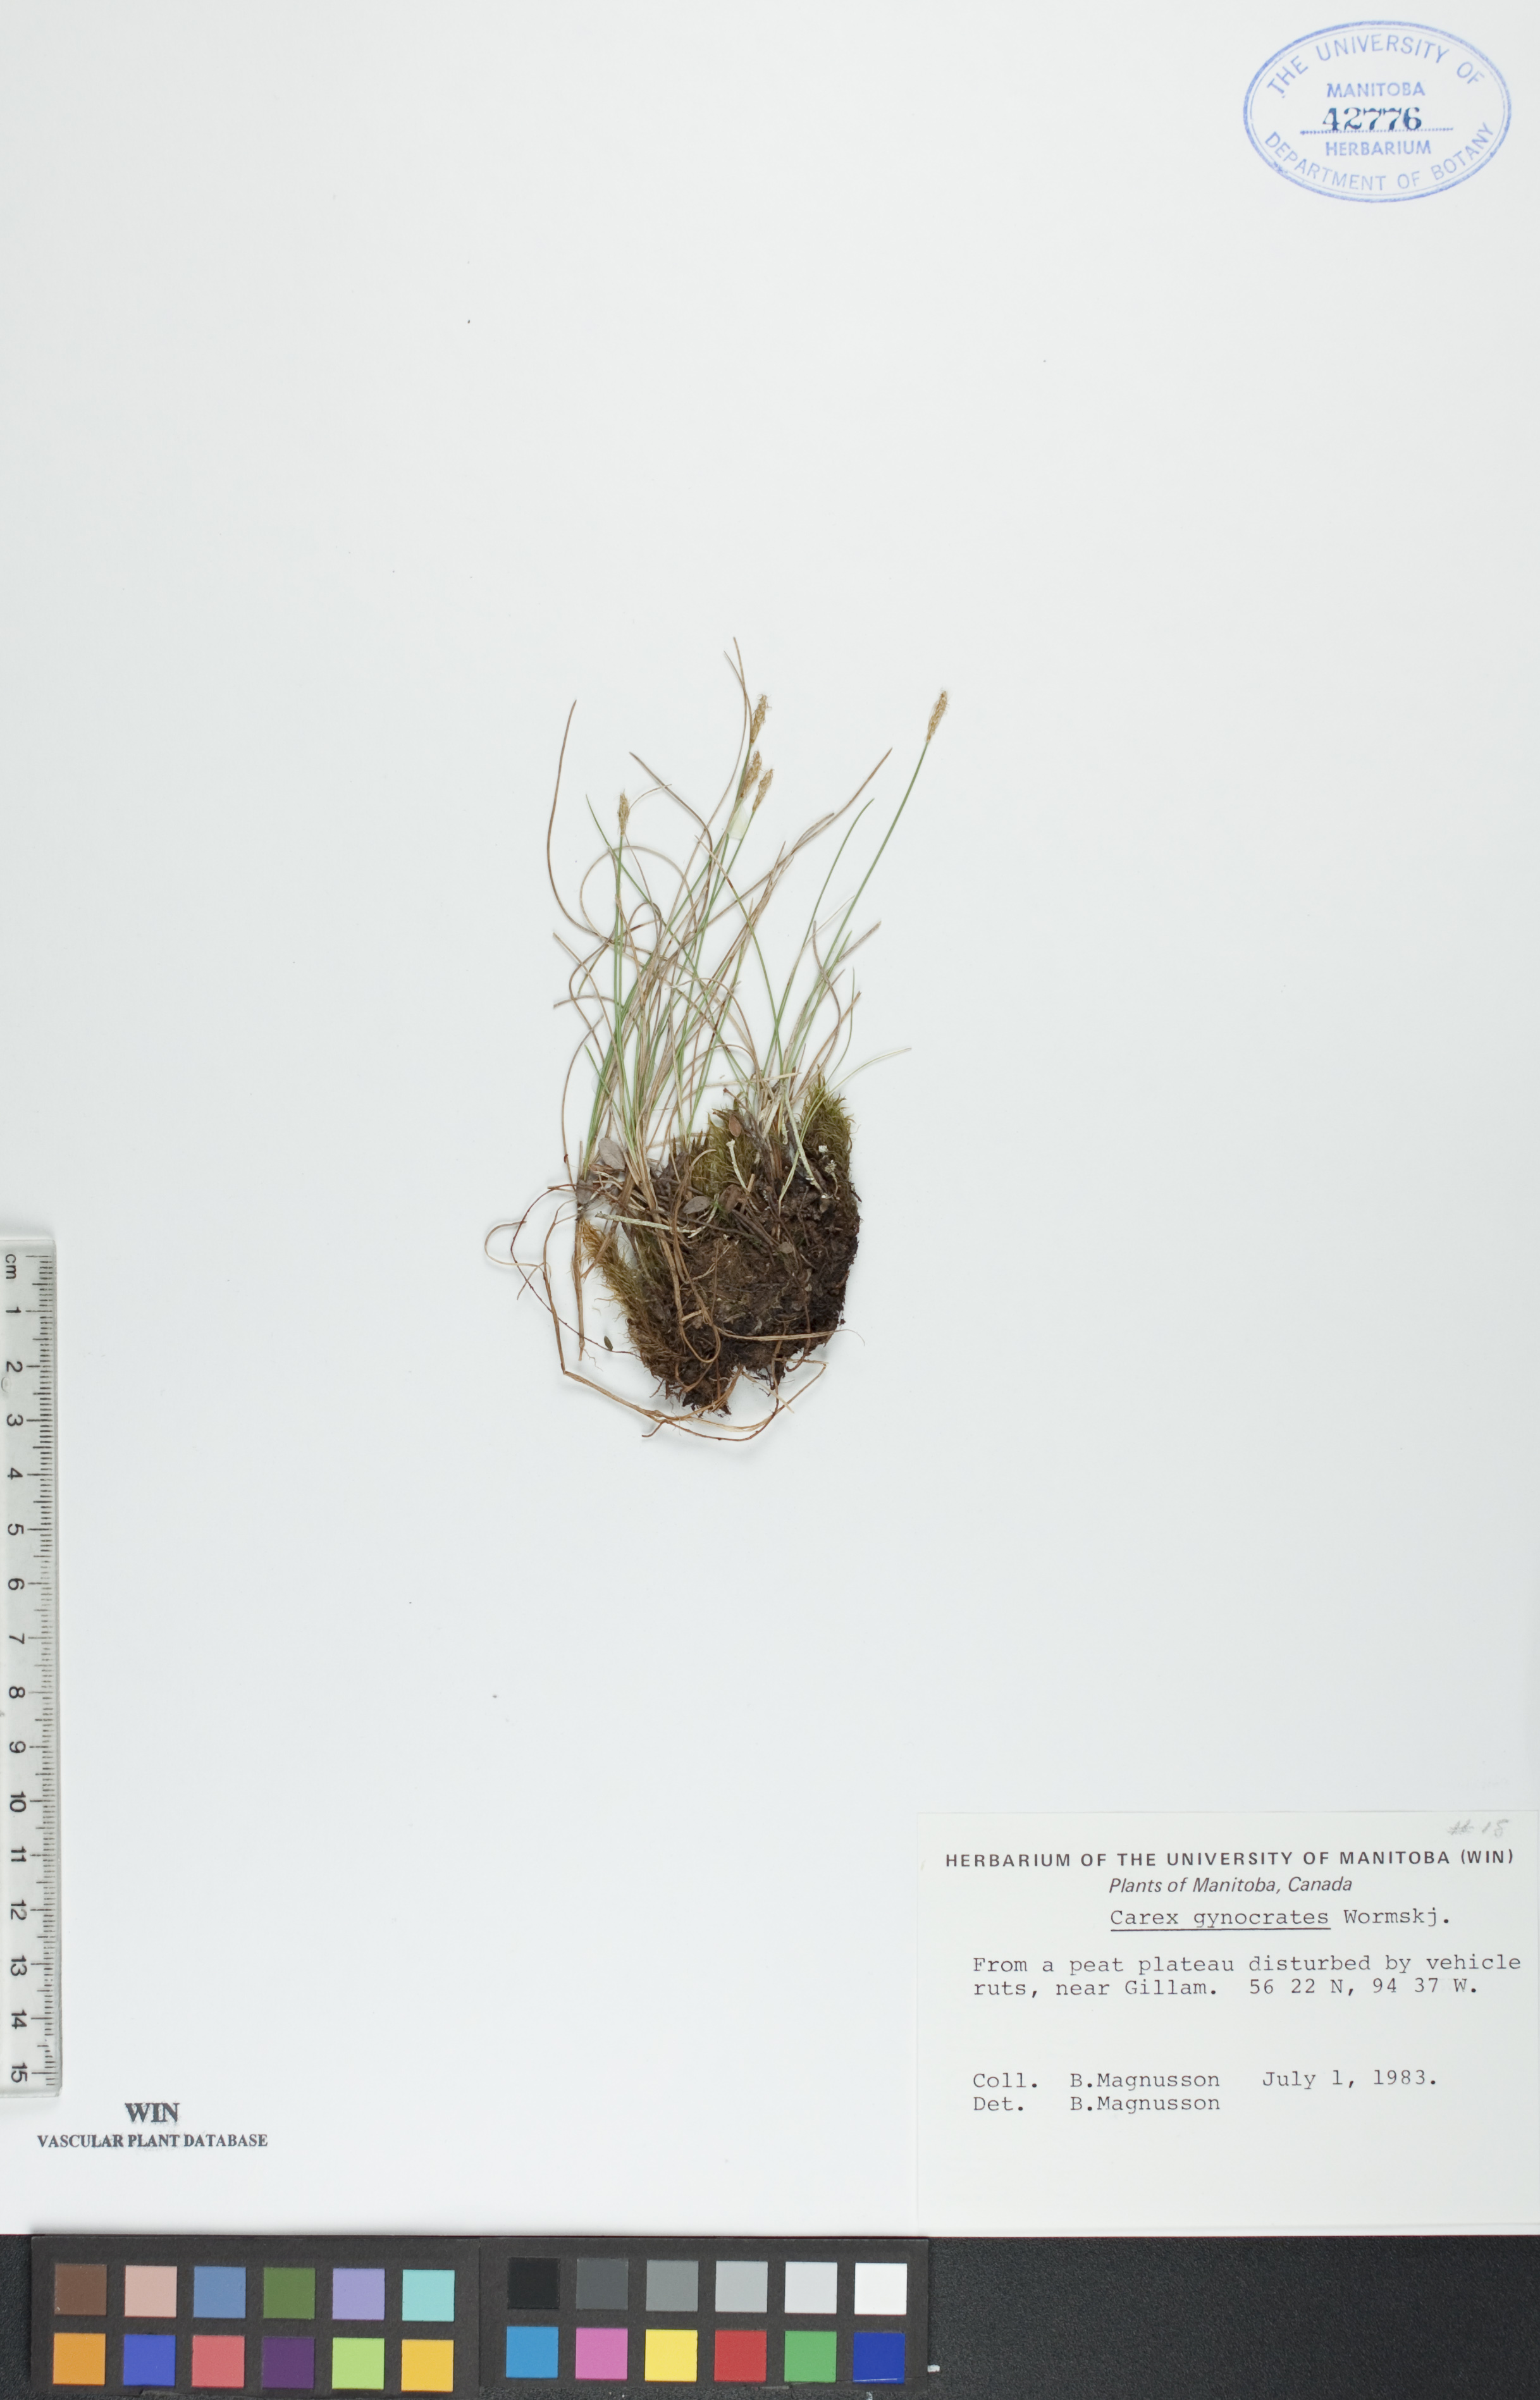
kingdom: Plantae
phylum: Tracheophyta
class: Liliopsida
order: Poales
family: Cyperaceae
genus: Carex
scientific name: Carex nardina
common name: Nard sedge
